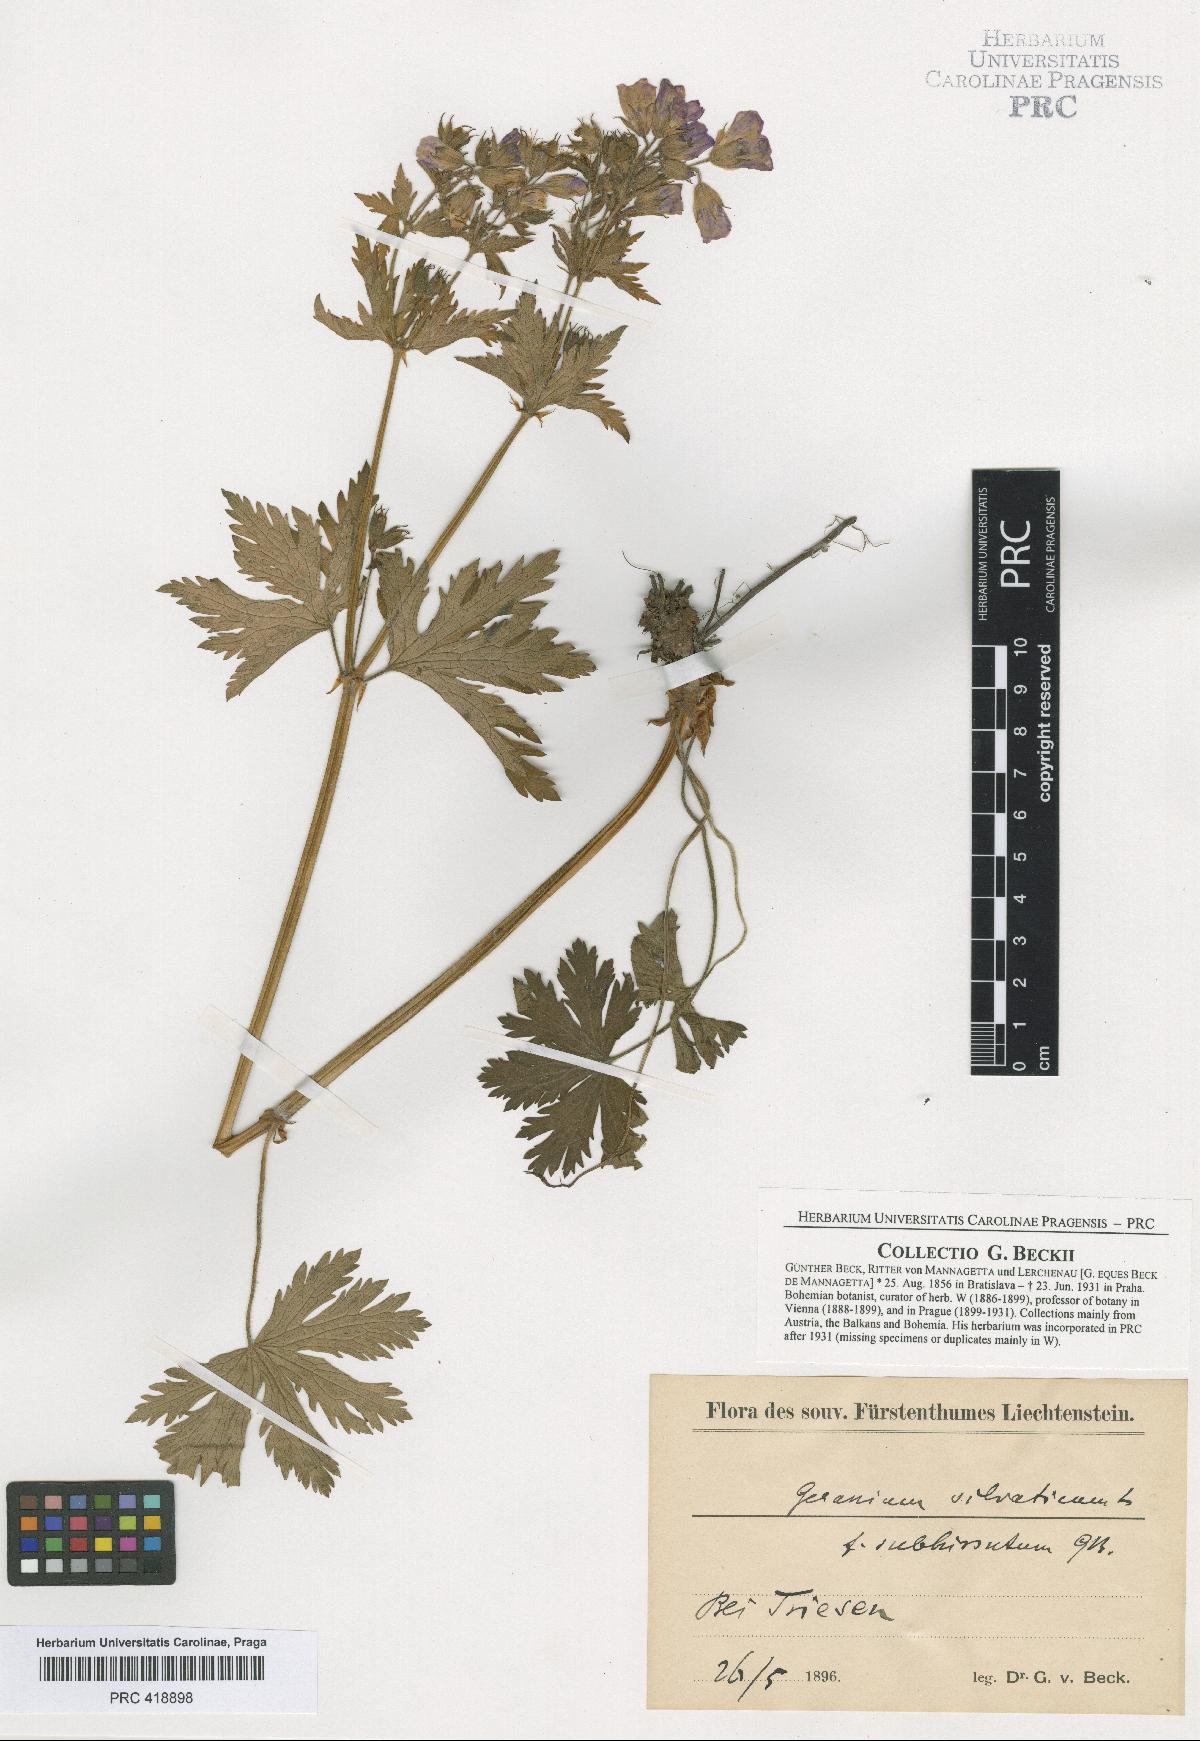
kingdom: Plantae
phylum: Tracheophyta
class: Magnoliopsida
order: Geraniales
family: Geraniaceae
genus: Geranium
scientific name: Geranium sylvaticum
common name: Wood crane's-bill
